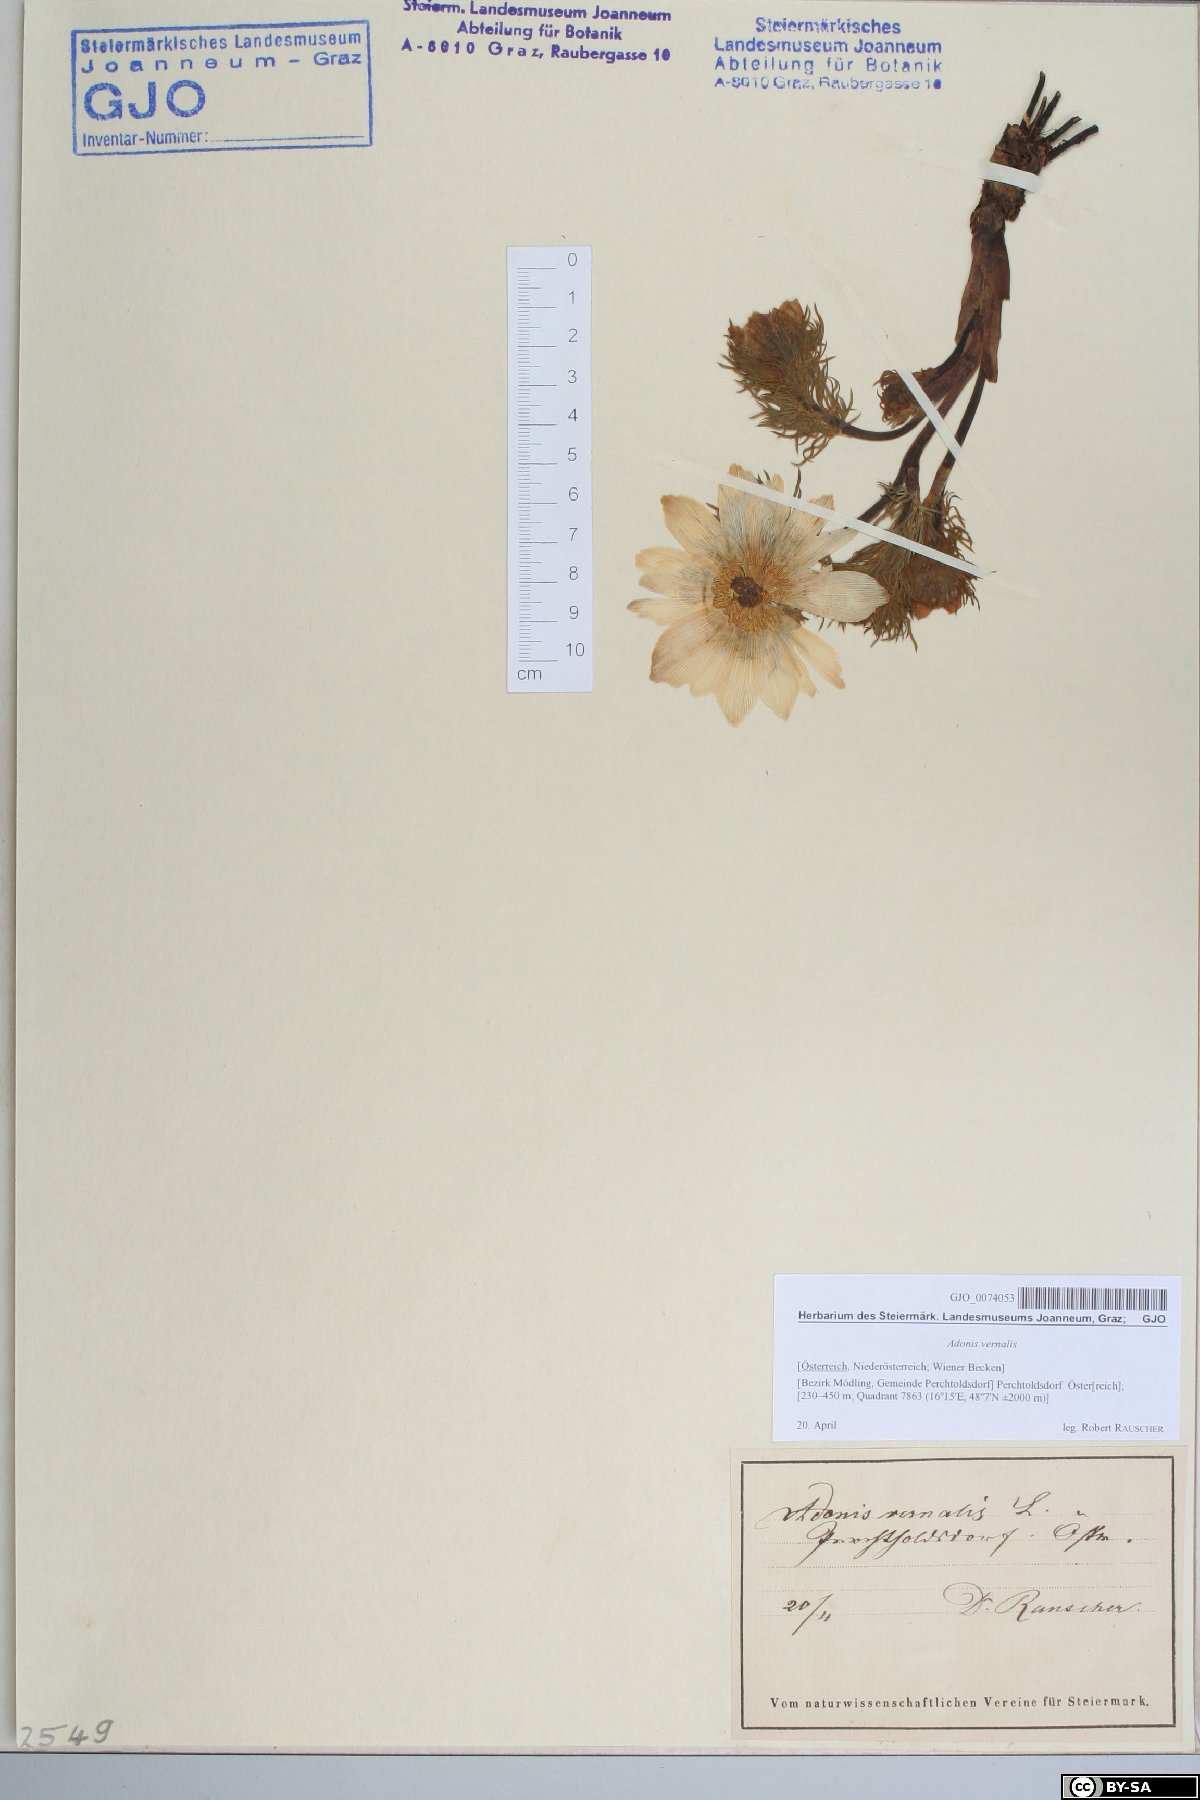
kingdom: Plantae
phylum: Tracheophyta
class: Magnoliopsida
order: Ranunculales
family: Ranunculaceae
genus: Adonis
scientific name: Adonis vernalis
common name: Yellow pheasants-eye
